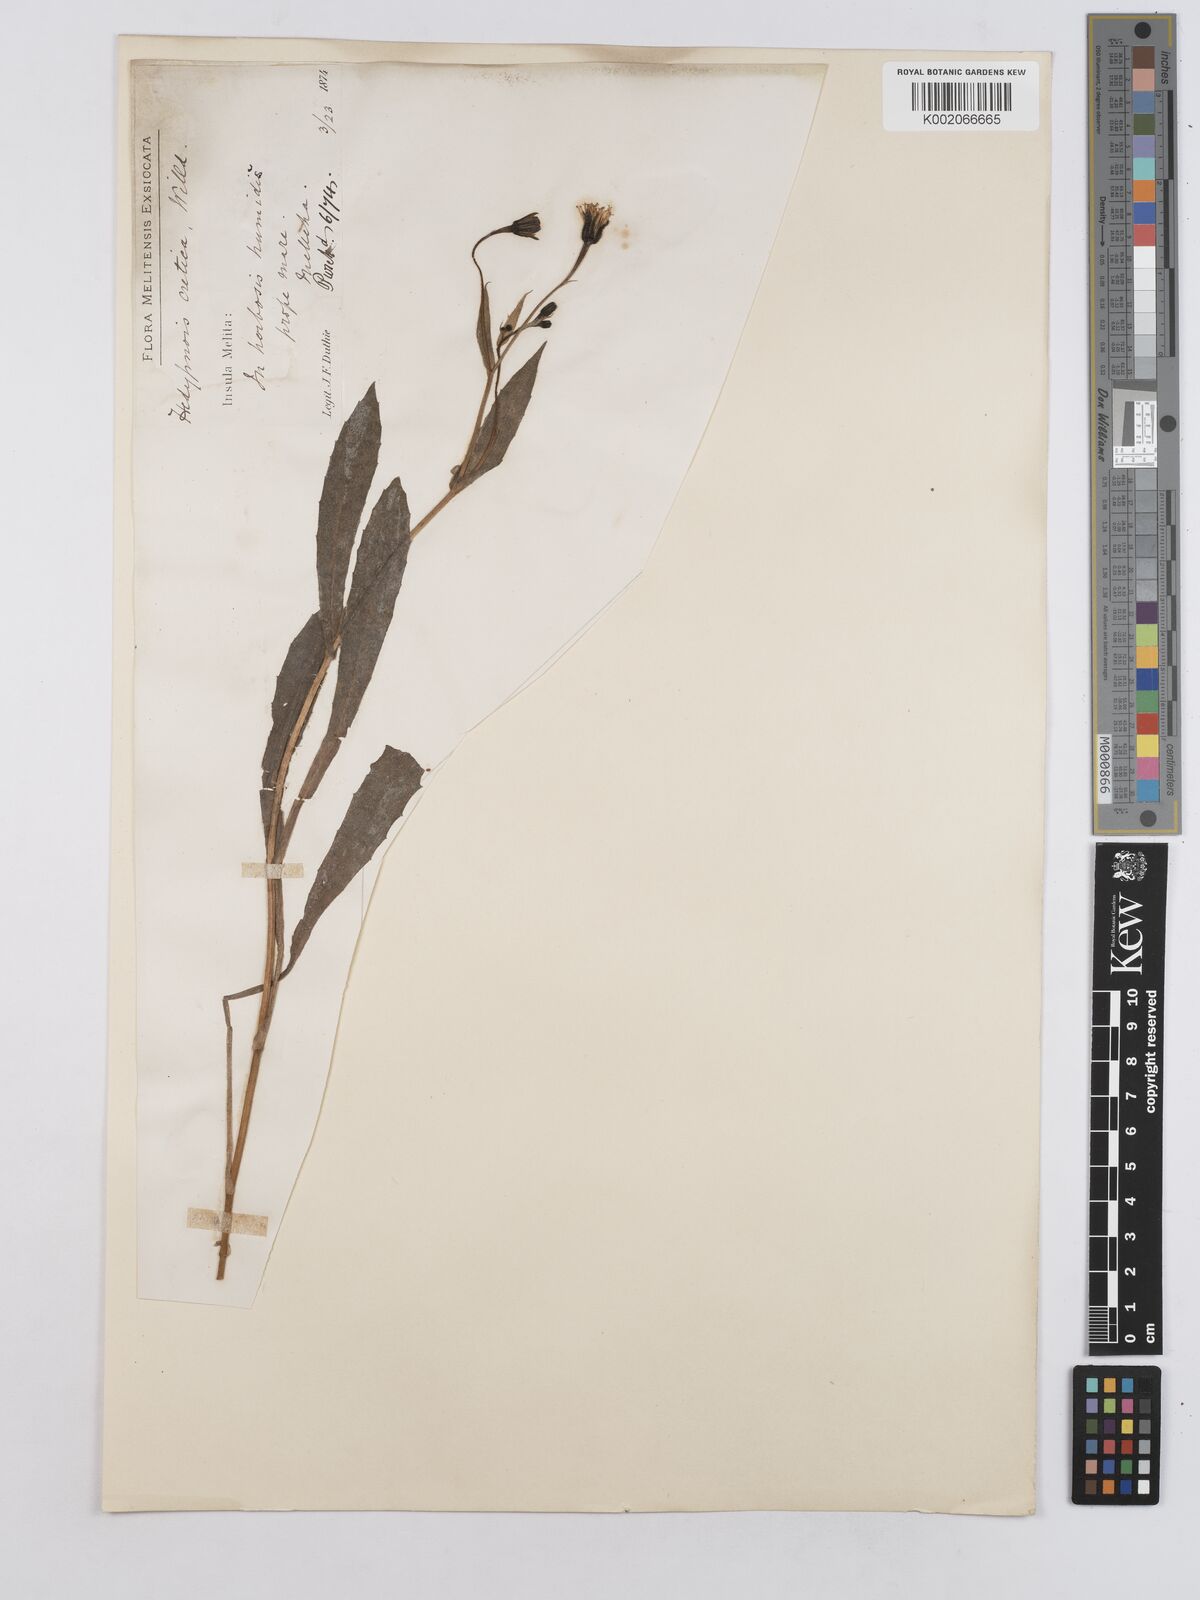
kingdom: Plantae
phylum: Tracheophyta
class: Magnoliopsida
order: Asterales
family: Asteraceae
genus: Hedypnois
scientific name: Hedypnois rhagadioloides
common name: Cretan weed
